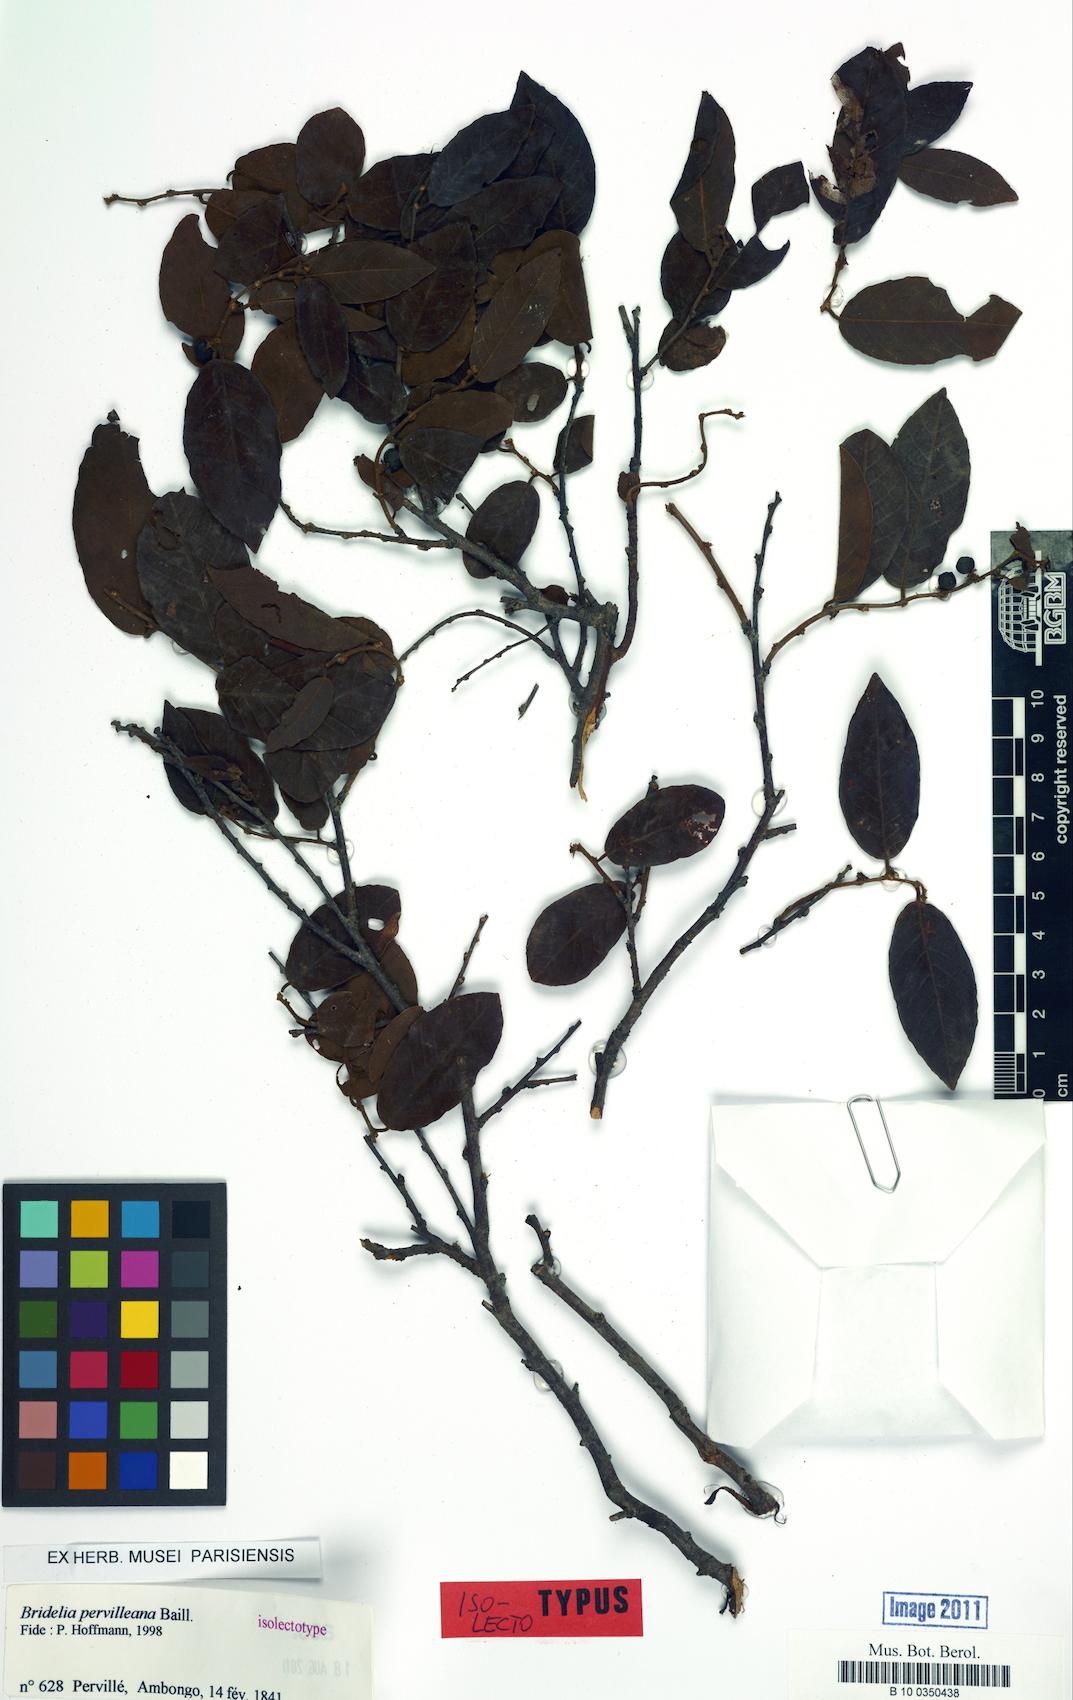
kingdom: Plantae
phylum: Tracheophyta
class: Magnoliopsida
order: Malpighiales
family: Phyllanthaceae
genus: Bridelia
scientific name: Bridelia pervilleana
